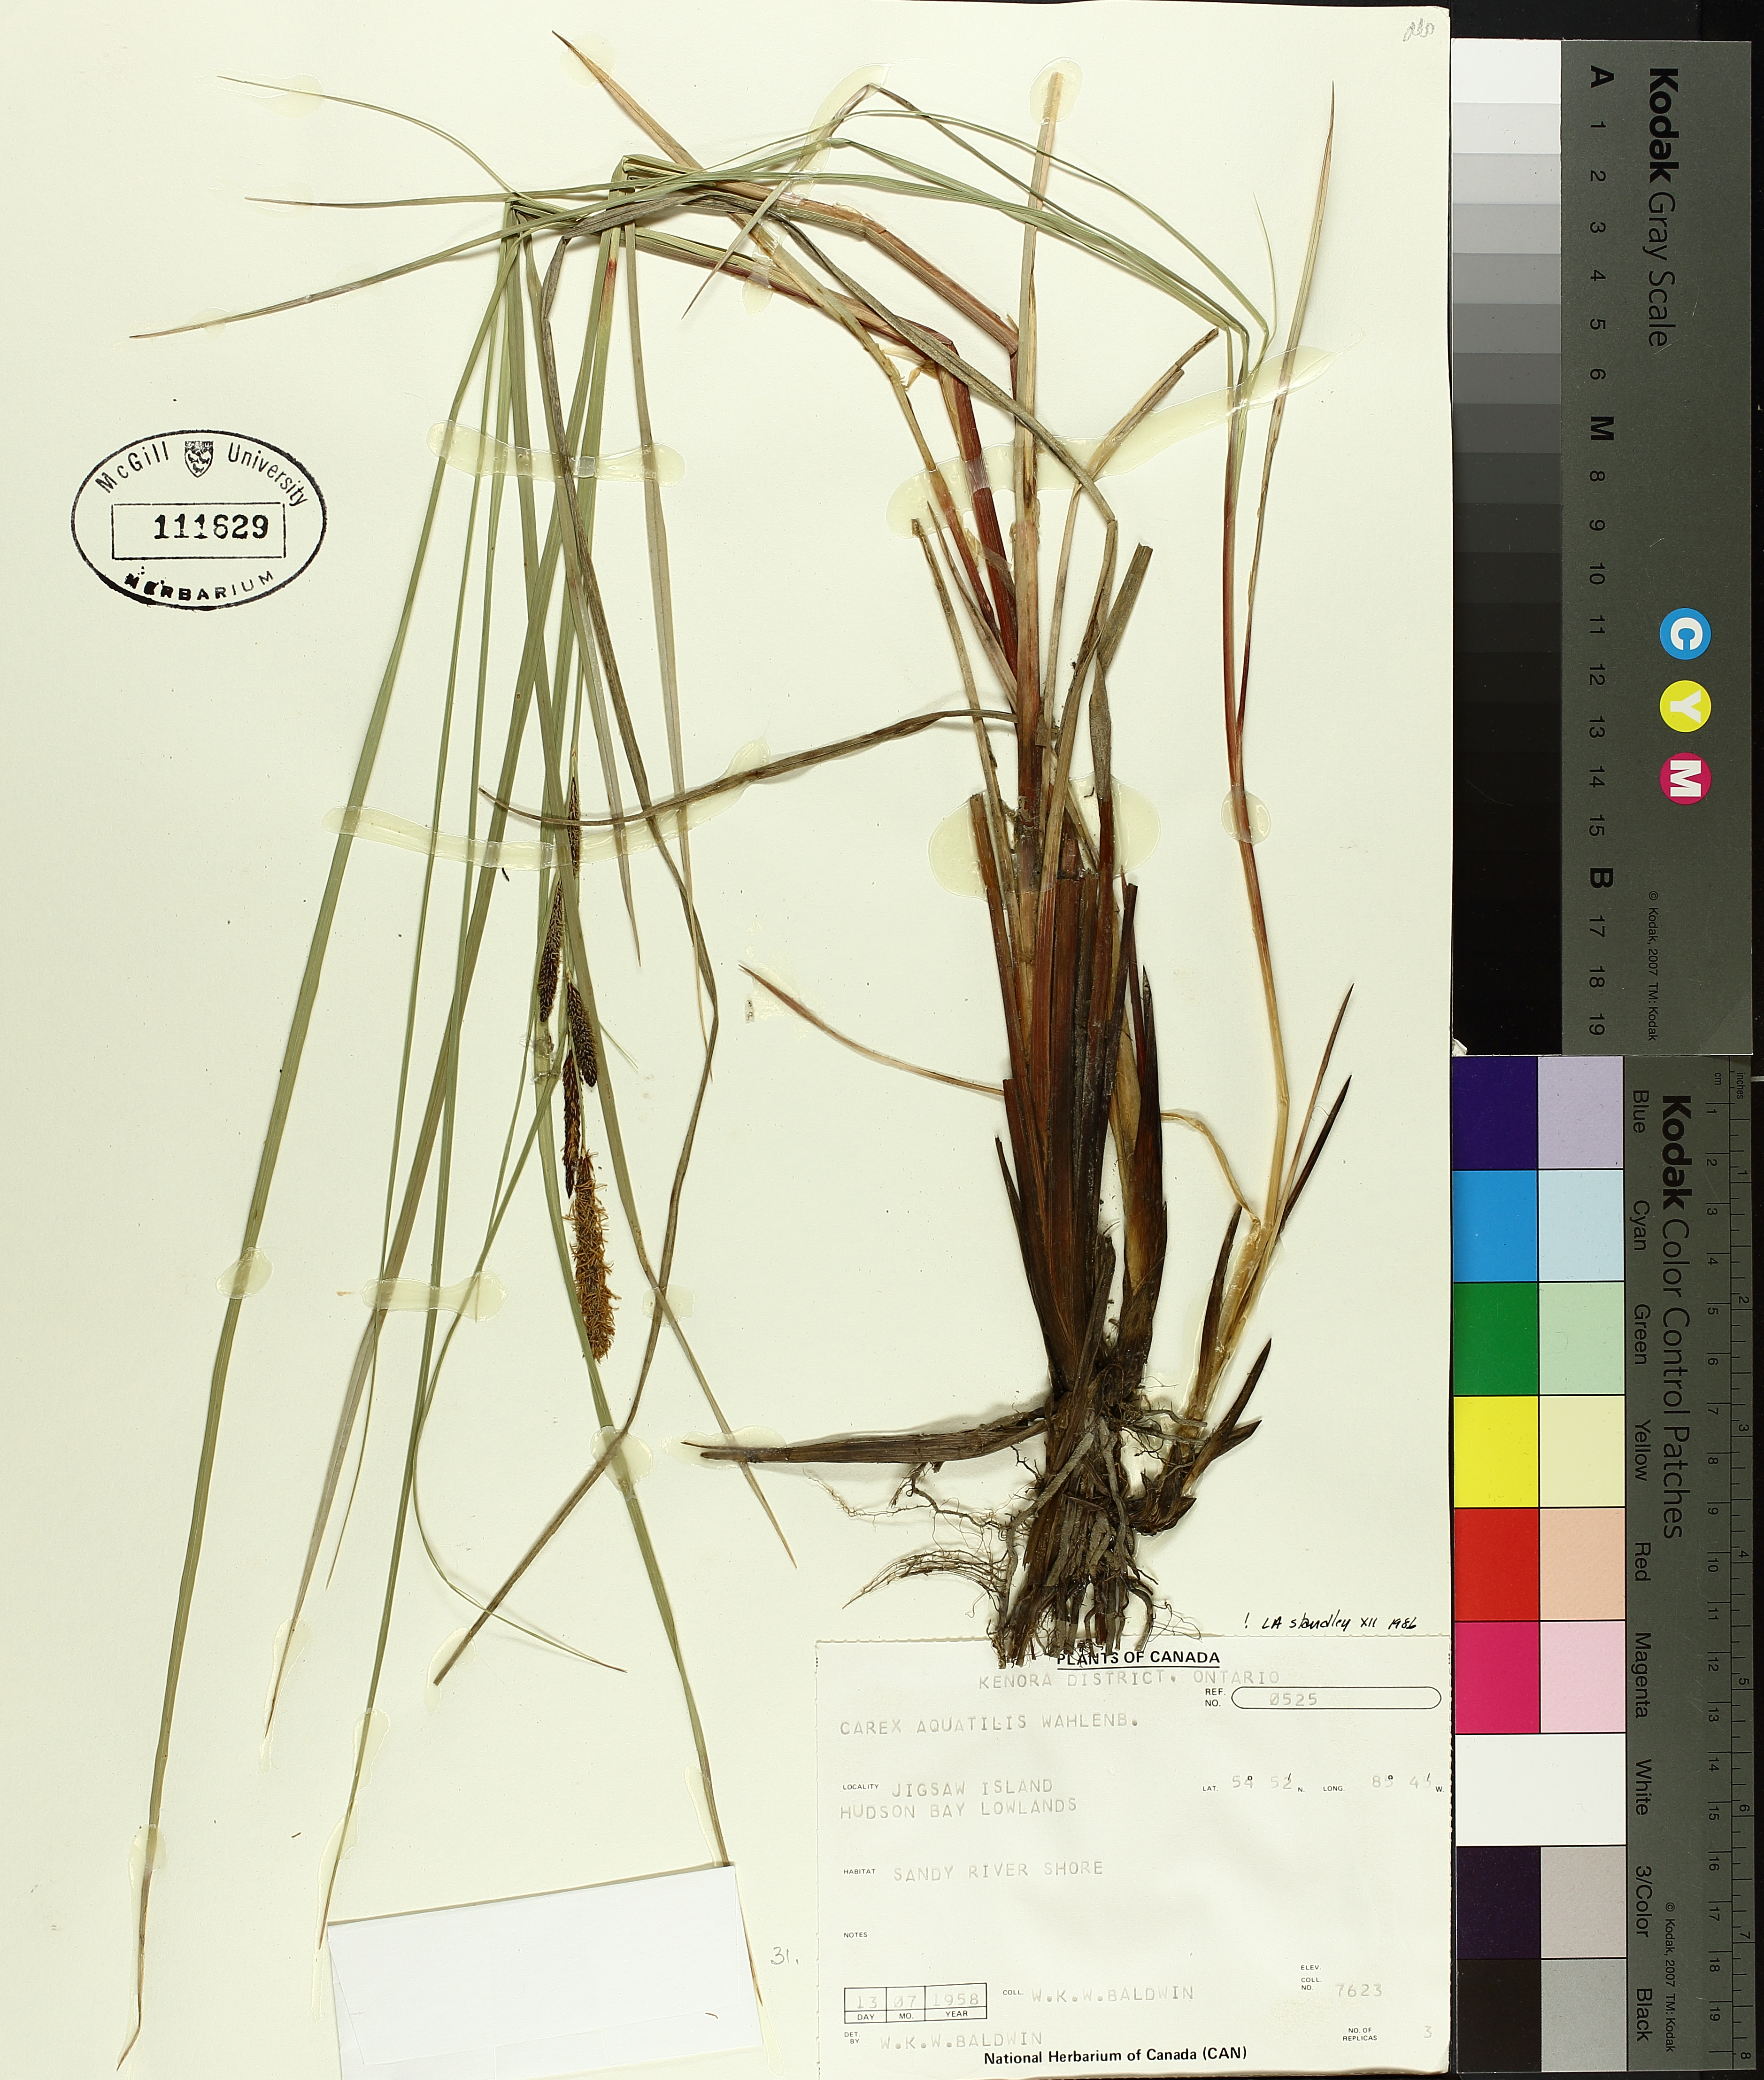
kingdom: Plantae
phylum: Tracheophyta
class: Liliopsida
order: Poales
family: Cyperaceae
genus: Carex
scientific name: Carex aquatilis
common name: Water sedge
